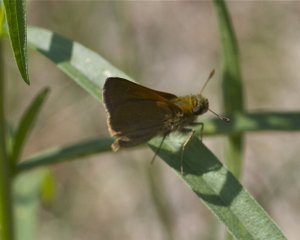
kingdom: Animalia
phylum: Arthropoda
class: Insecta
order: Lepidoptera
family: Hesperiidae
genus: Polites
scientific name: Polites themistocles
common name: Tawny-edged Skipper
